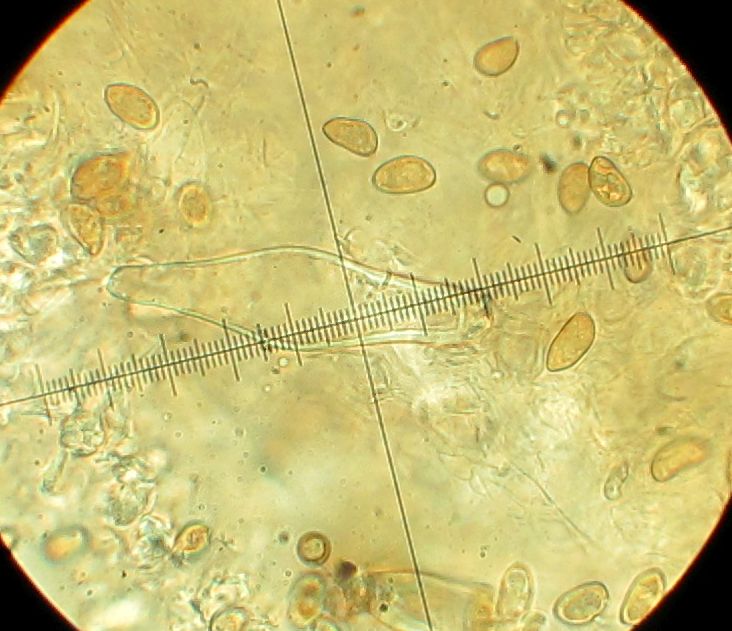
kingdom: Fungi
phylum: Basidiomycota
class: Agaricomycetes
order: Agaricales
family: Inocybaceae
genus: Inocybe
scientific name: Inocybe tjallingiorum
